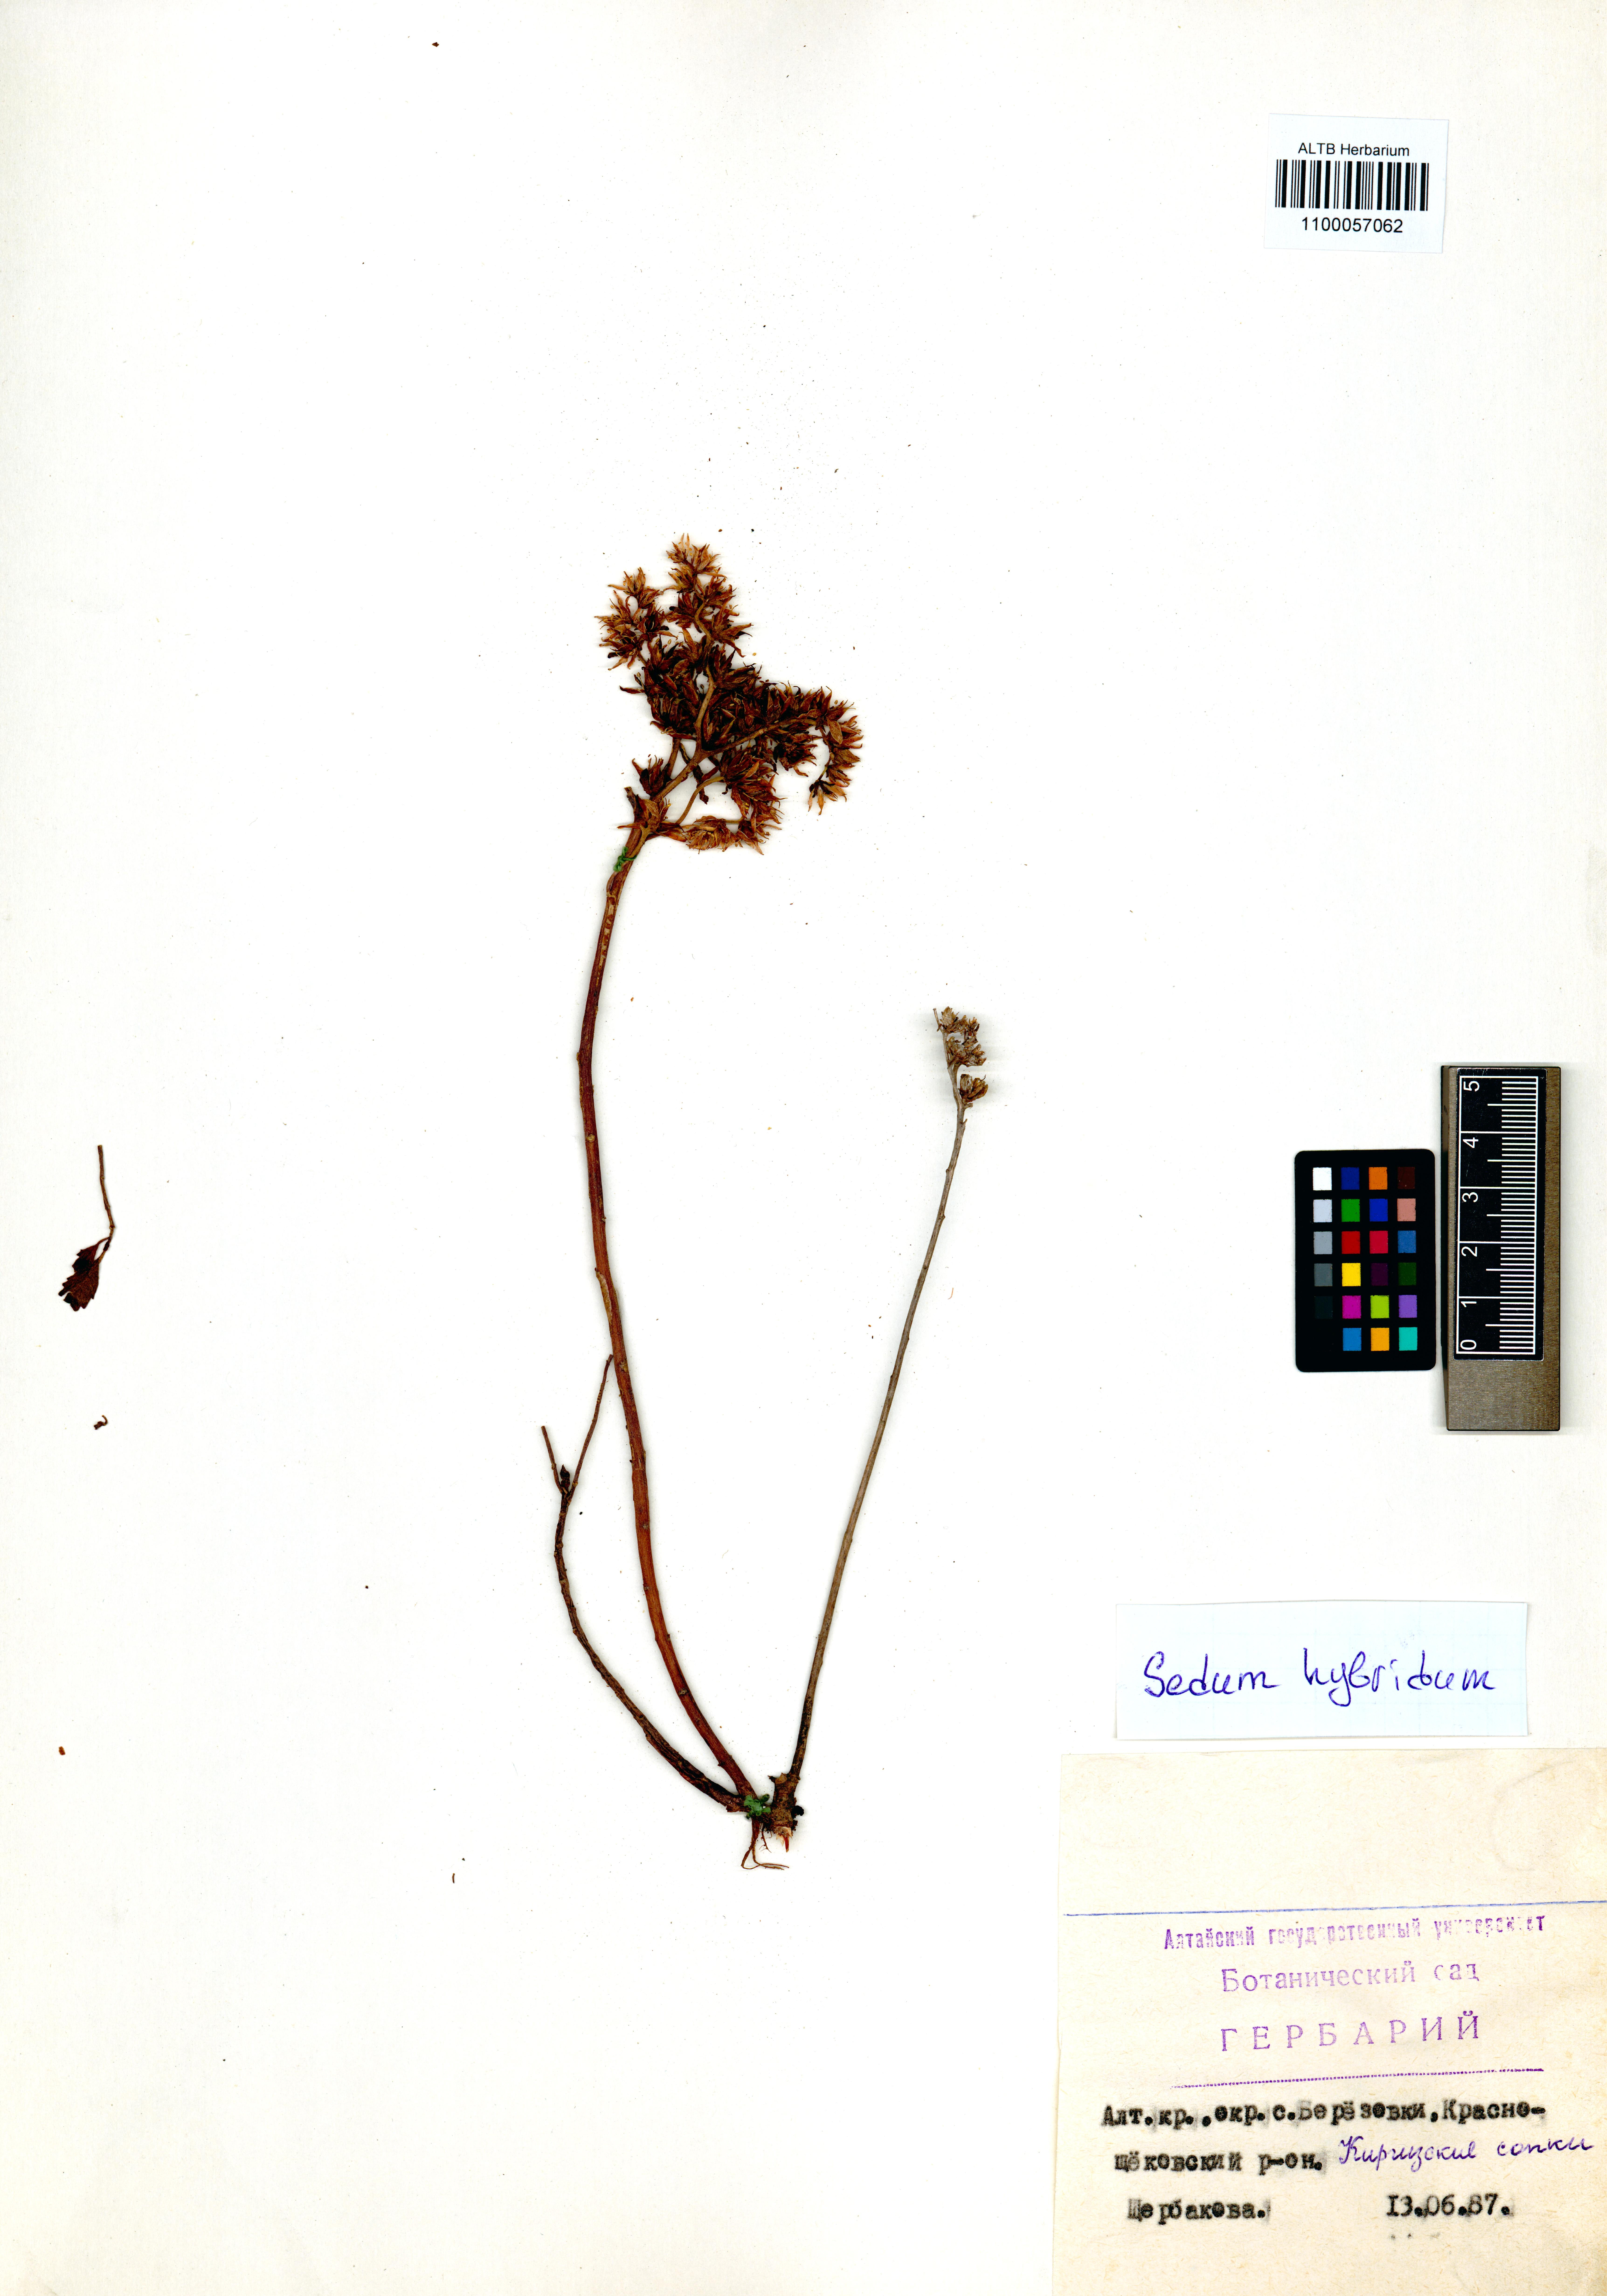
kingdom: Plantae
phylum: Tracheophyta
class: Magnoliopsida
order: Saxifragales
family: Crassulaceae
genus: Phedimus
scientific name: Phedimus hybridus
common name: Hybrid stonecrop
